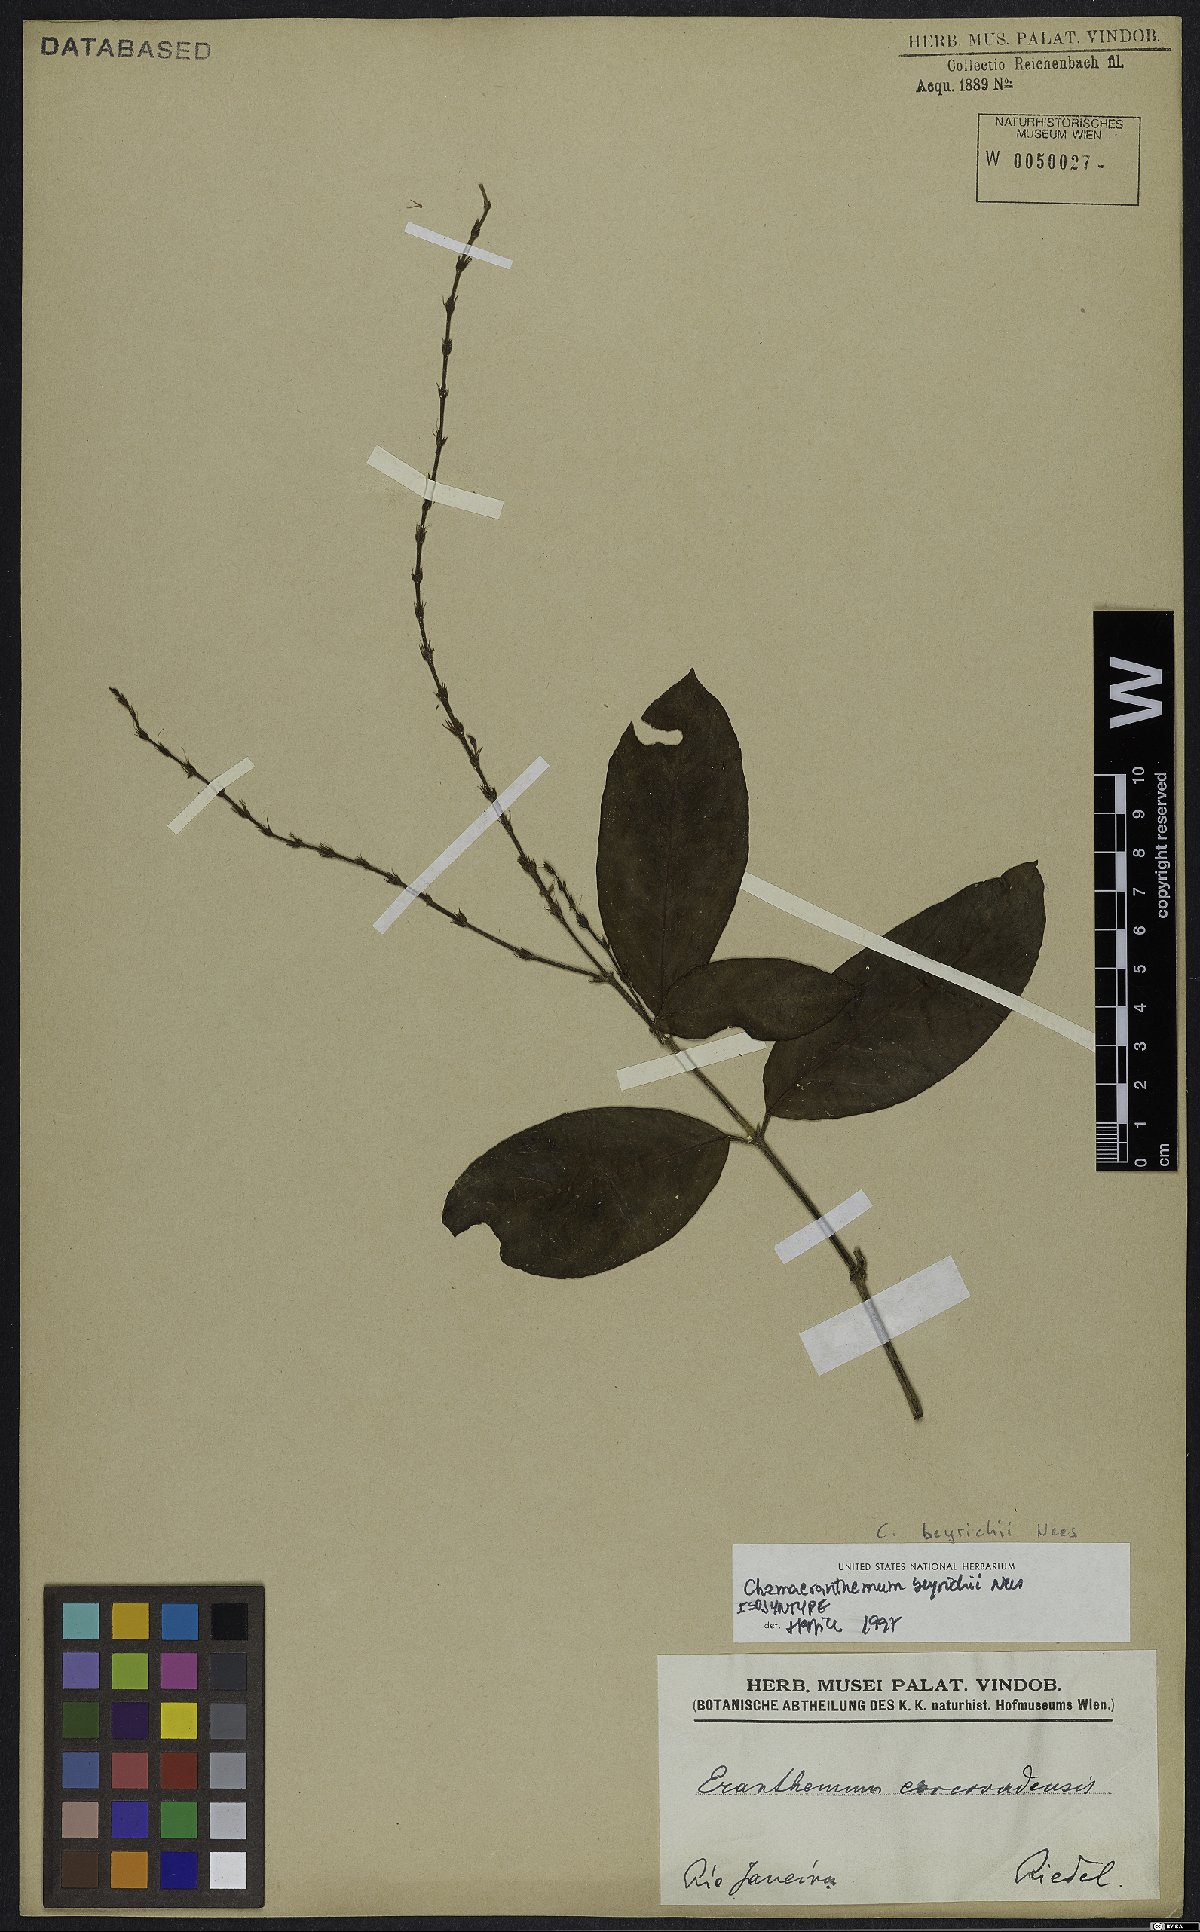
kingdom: Plantae
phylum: Tracheophyta
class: Magnoliopsida
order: Lamiales
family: Acanthaceae
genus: Chamaeranthemum
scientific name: Chamaeranthemum beyrichii
